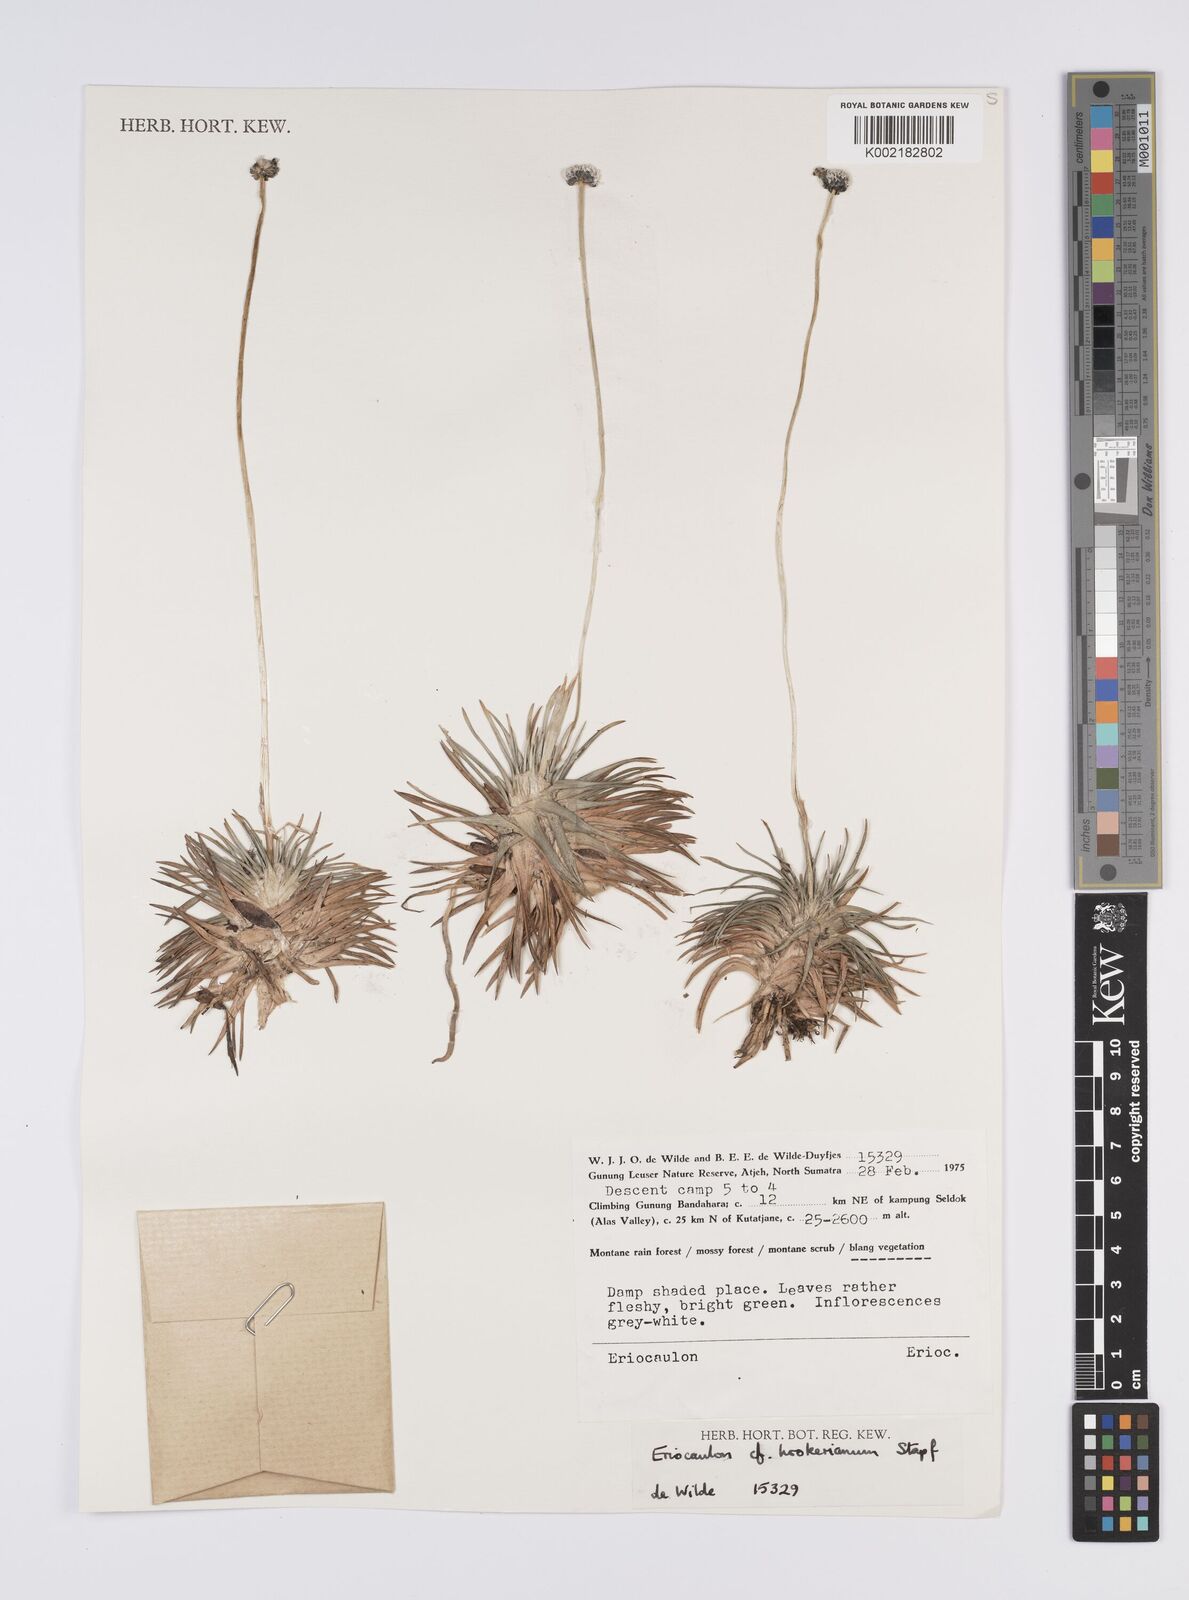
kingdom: Plantae
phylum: Tracheophyta
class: Liliopsida
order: Poales
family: Eriocaulaceae
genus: Eriocaulon
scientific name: Eriocaulon hookerianum
